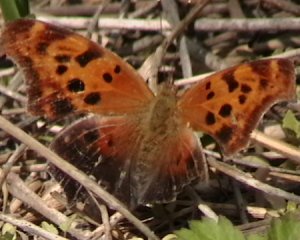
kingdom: Animalia
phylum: Arthropoda
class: Insecta
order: Lepidoptera
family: Nymphalidae
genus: Polygonia
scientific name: Polygonia interrogationis
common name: Question Mark
